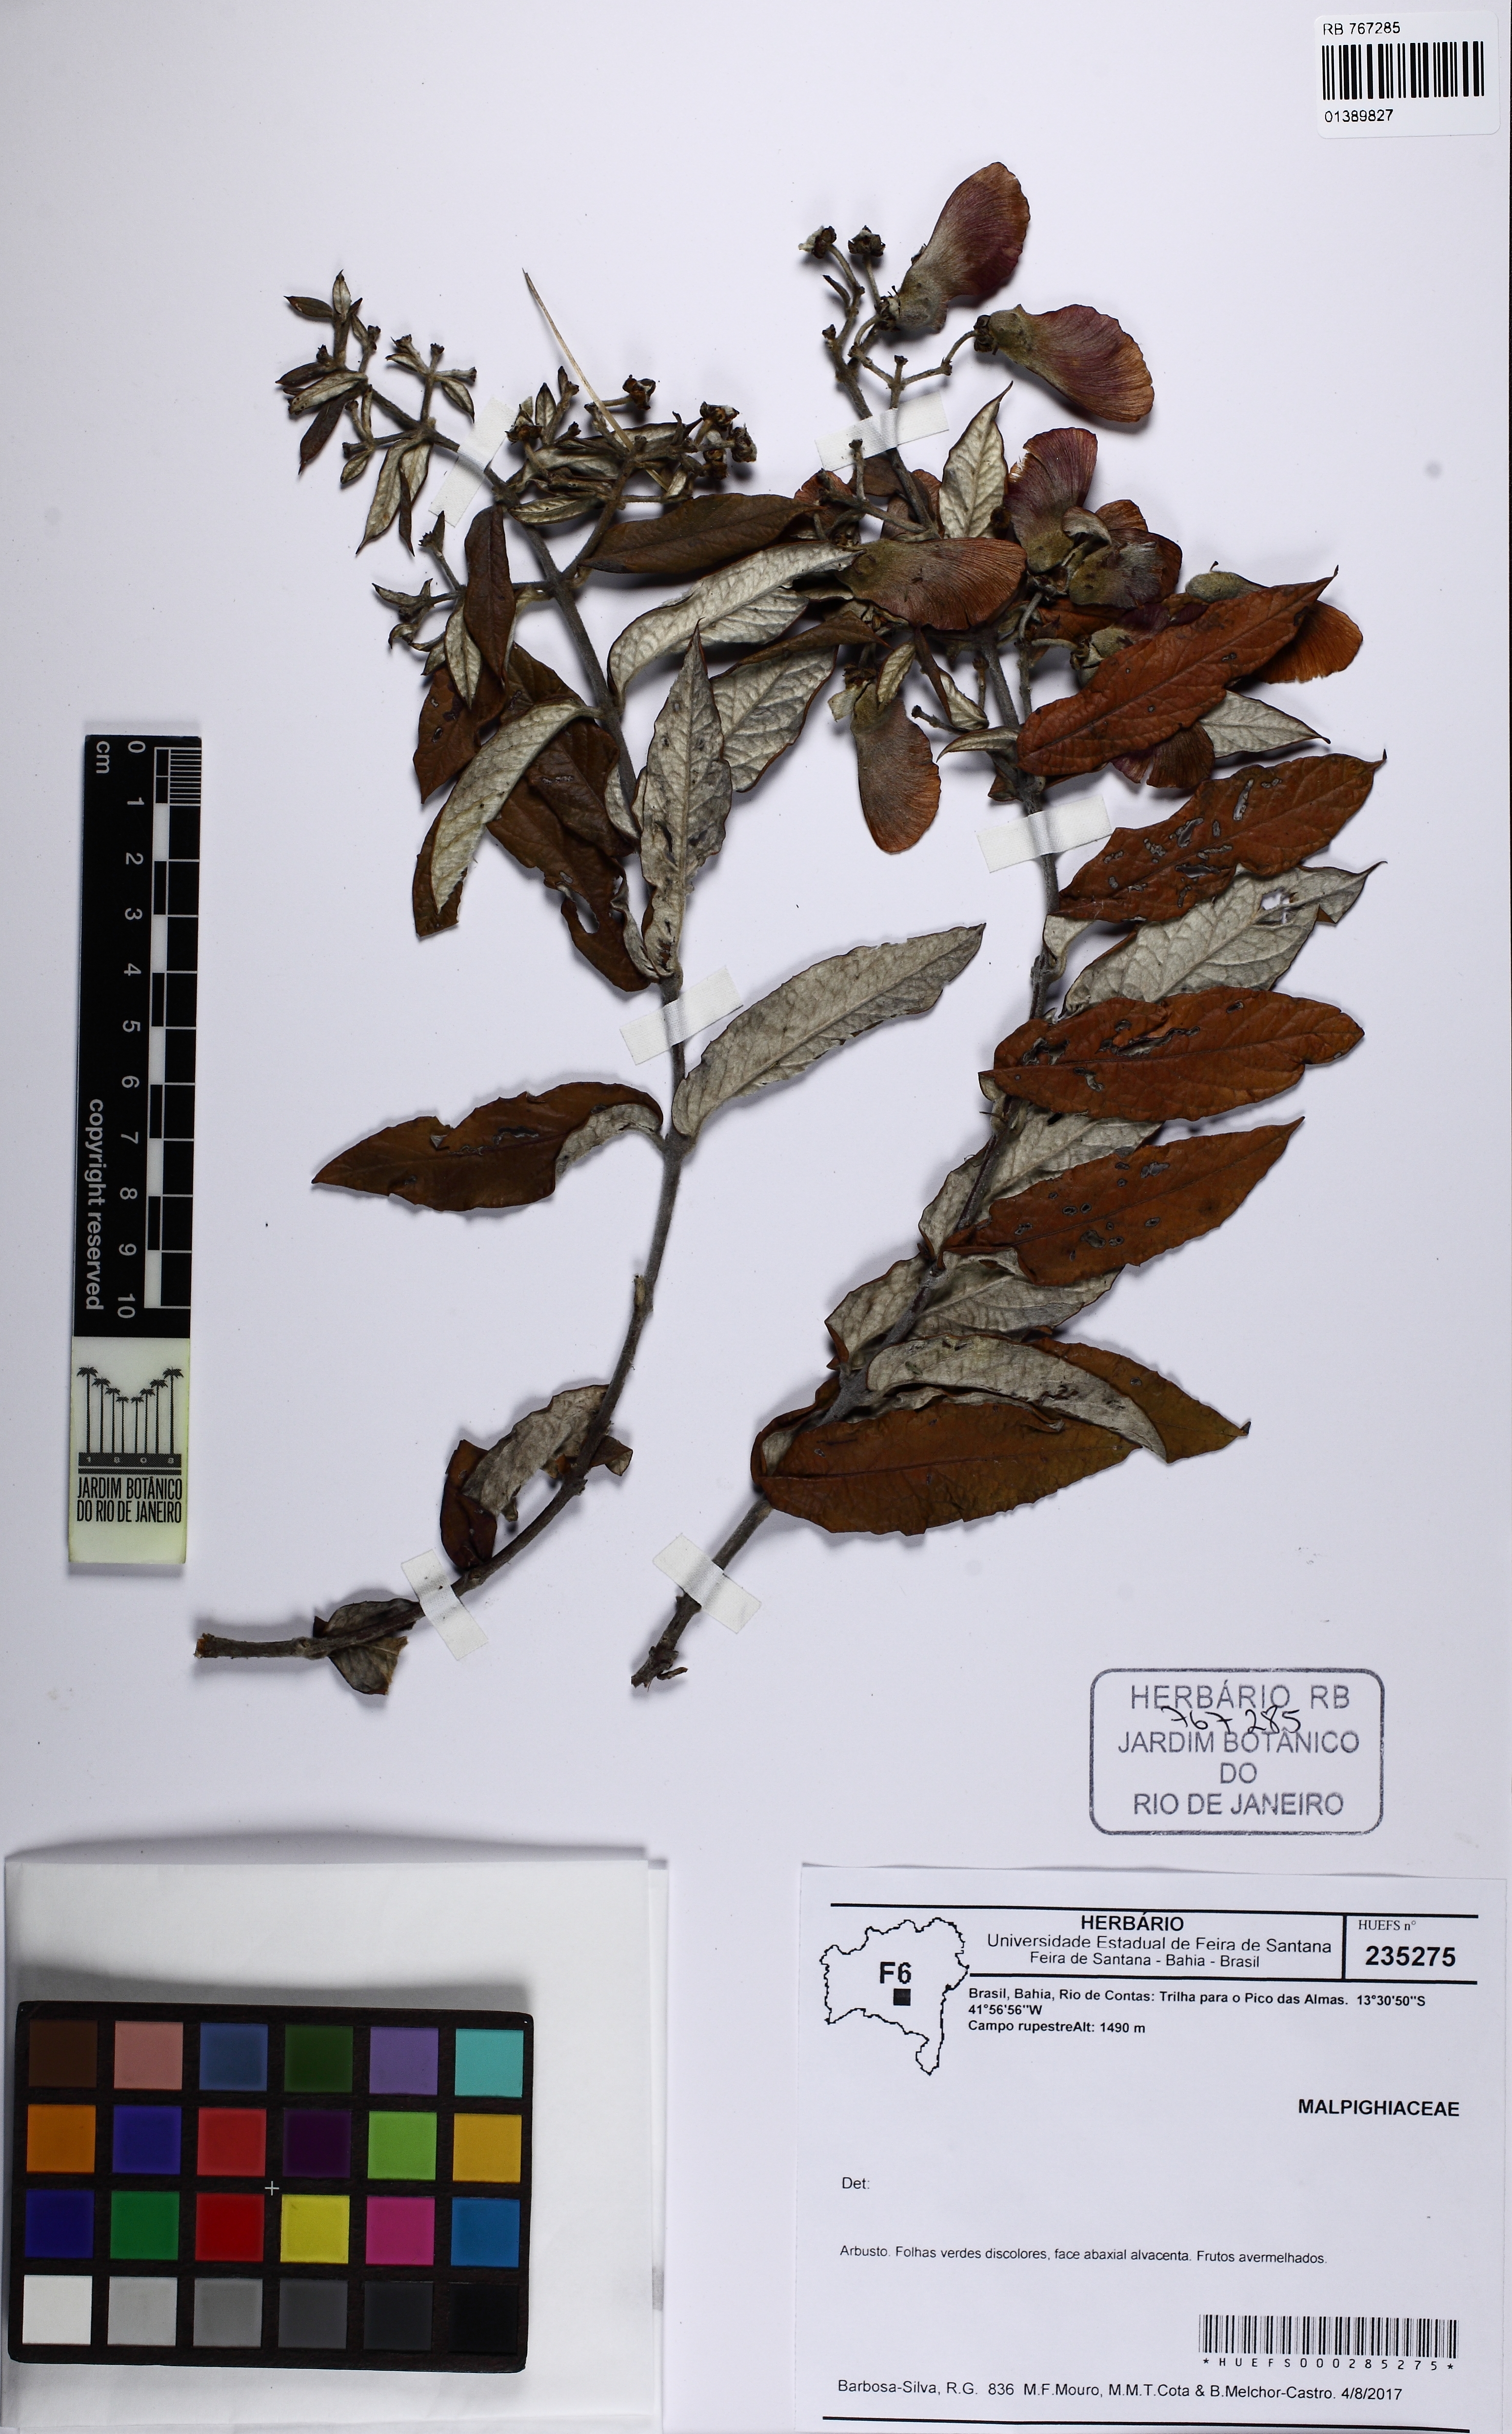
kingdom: Plantae
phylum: Tracheophyta
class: Magnoliopsida
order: Malpighiales
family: Malpighiaceae
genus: Banisteriopsis
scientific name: Banisteriopsis
